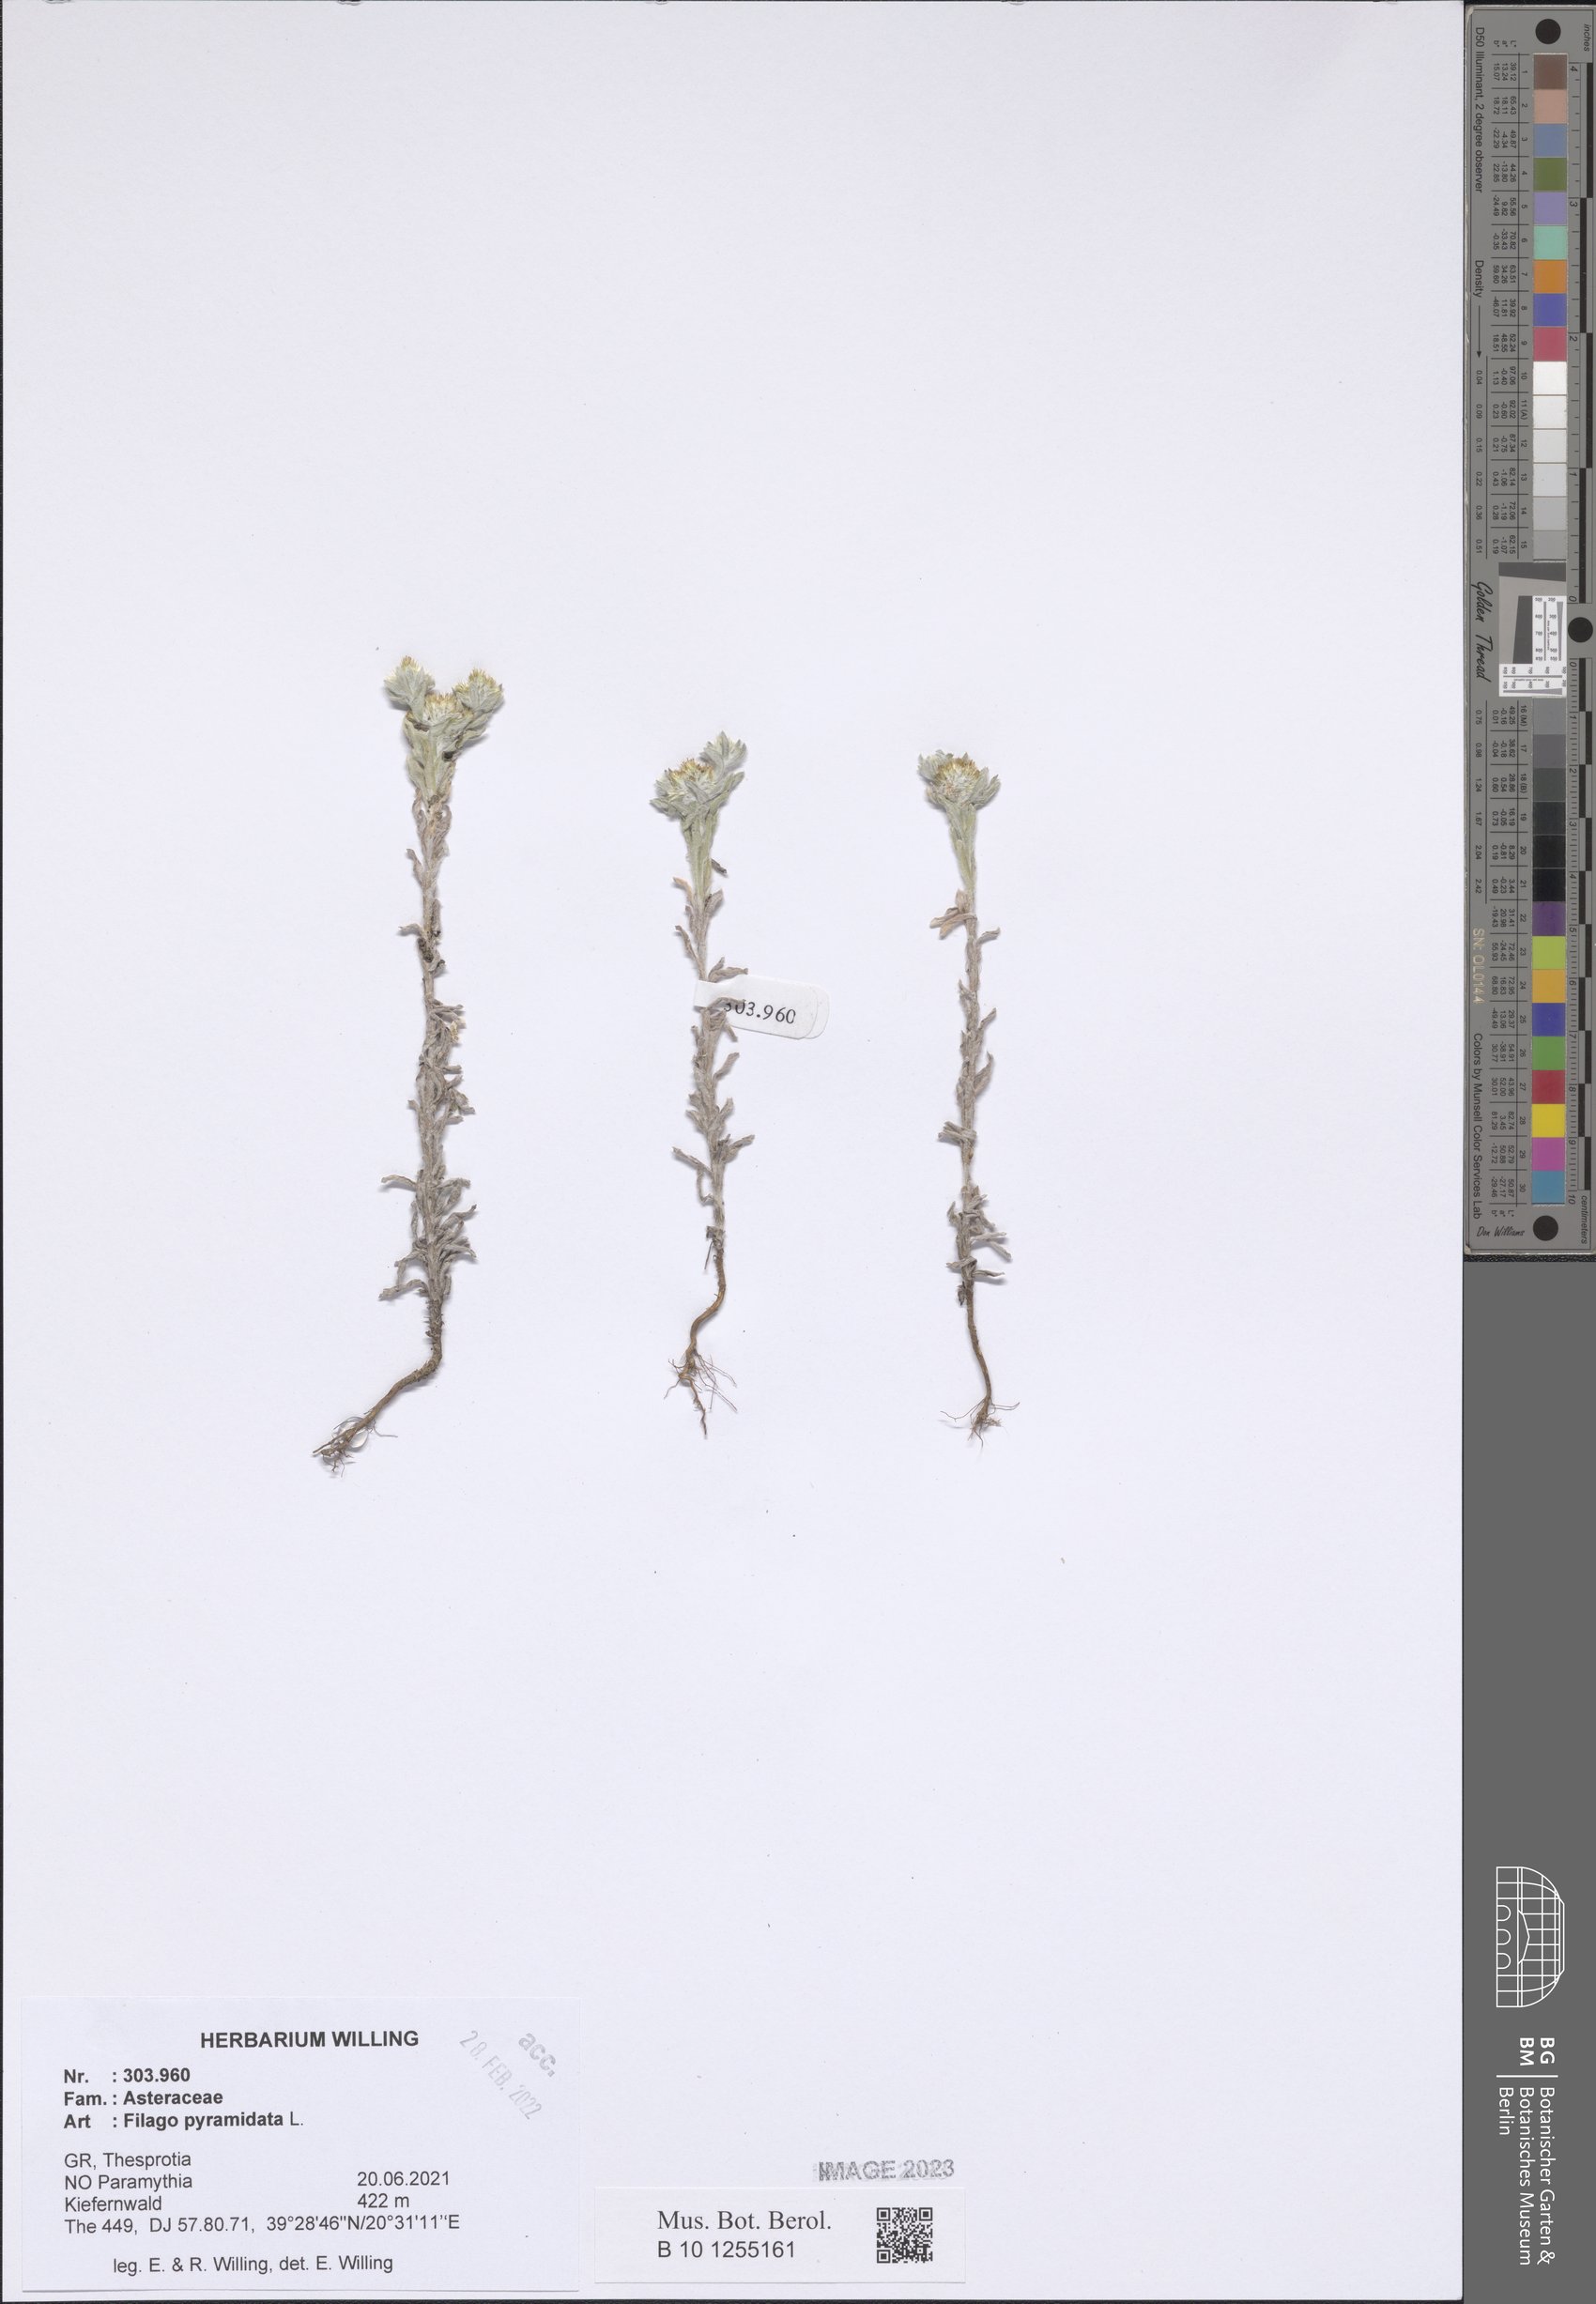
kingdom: Plantae
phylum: Tracheophyta
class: Magnoliopsida
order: Asterales
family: Asteraceae
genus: Filago
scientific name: Filago pyramidata
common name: Broad-leaved cudweed
